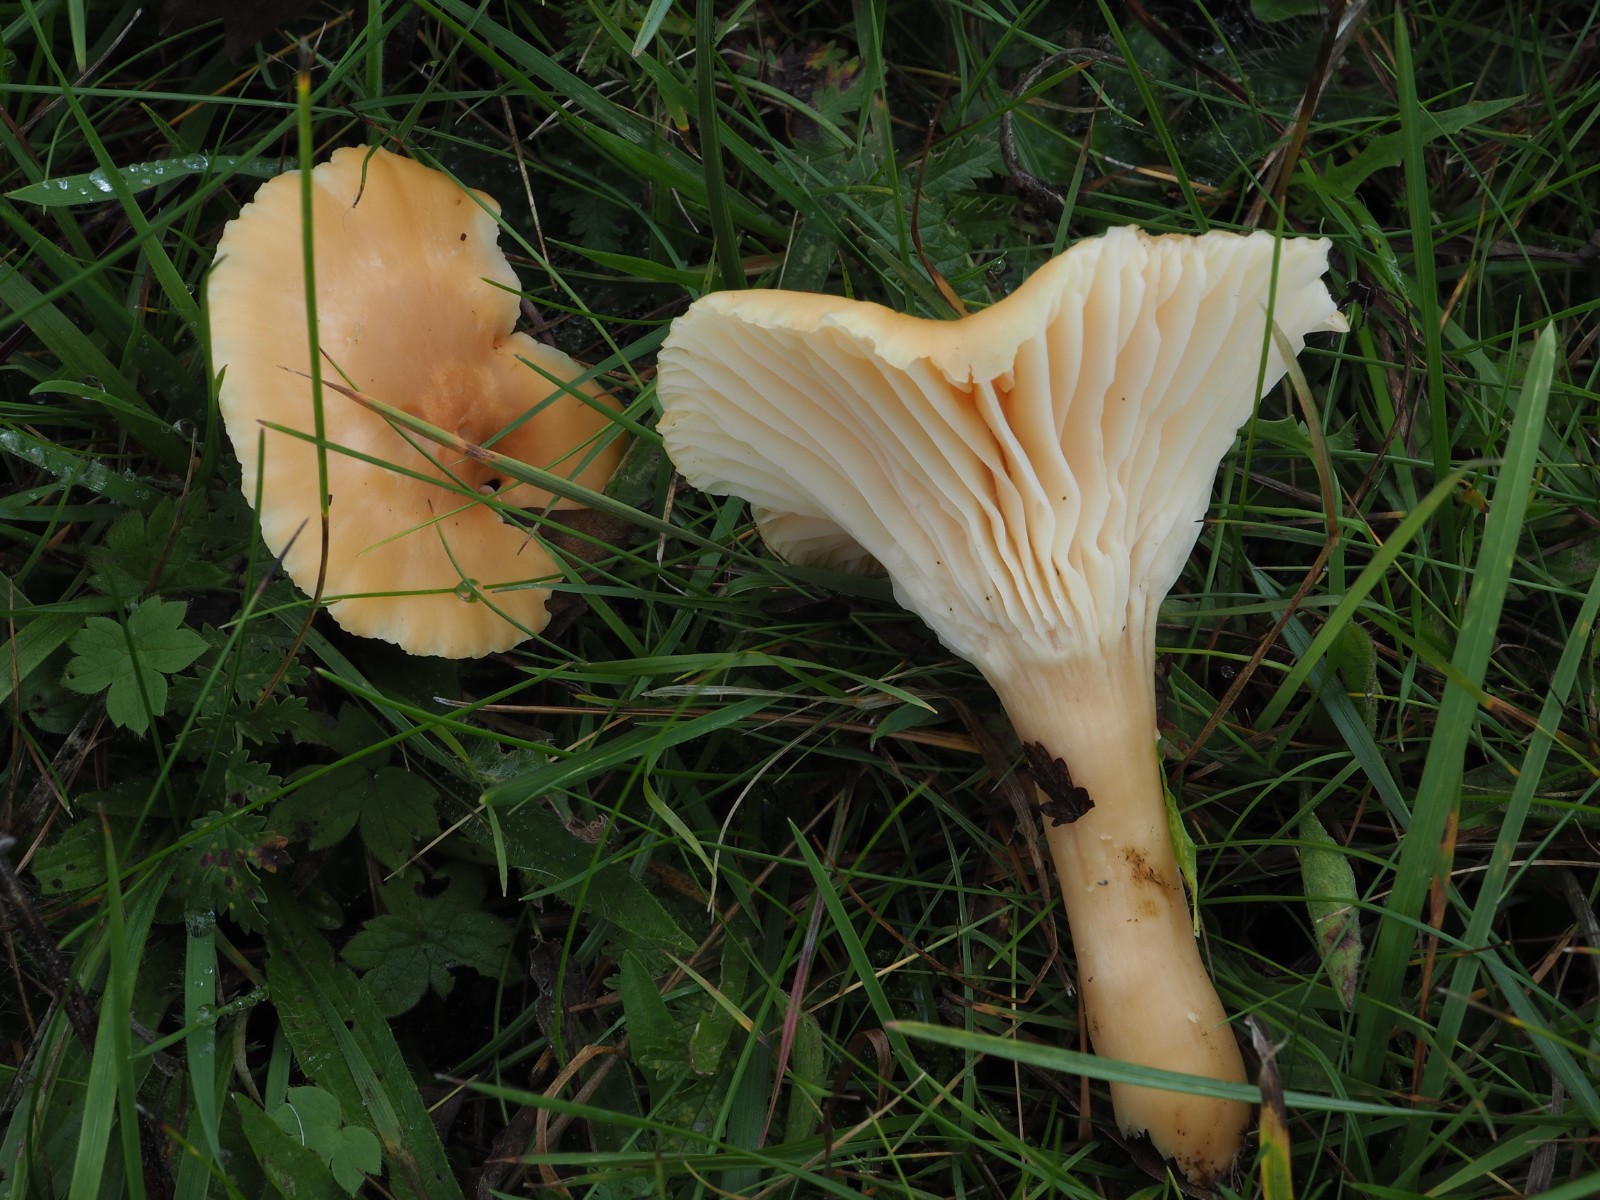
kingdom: Fungi
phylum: Basidiomycota
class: Agaricomycetes
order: Agaricales
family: Hygrophoraceae
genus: Cuphophyllus
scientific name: Cuphophyllus pratensis
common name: eng-vokshat
